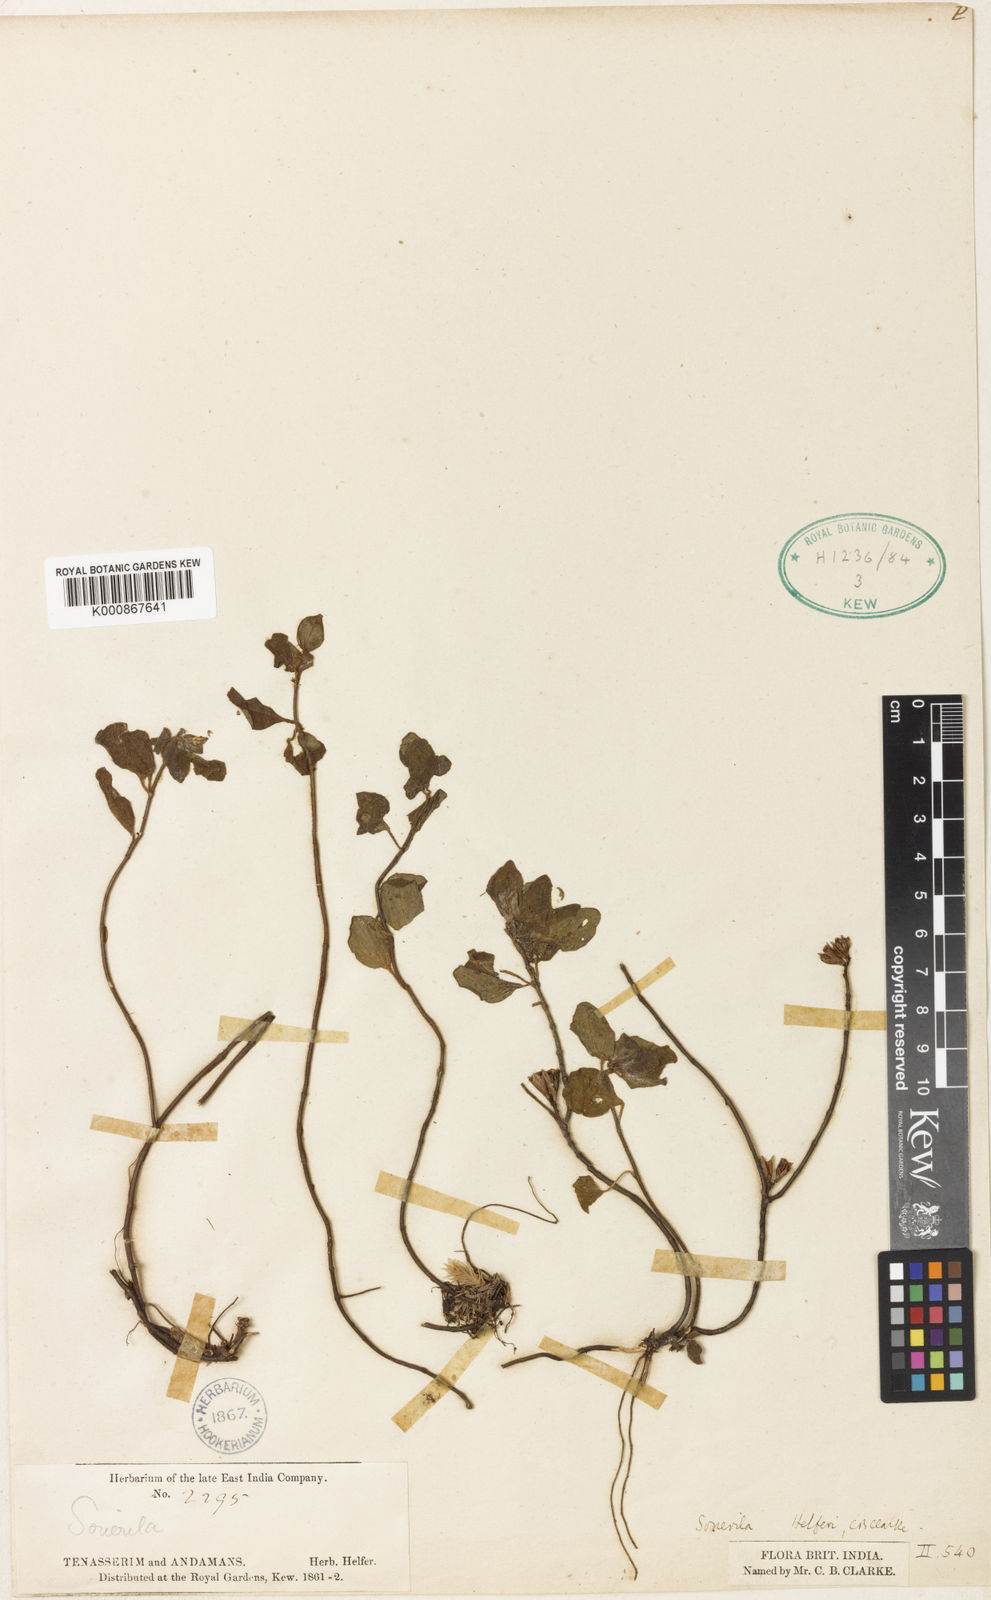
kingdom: Plantae
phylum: Tracheophyta
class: Magnoliopsida
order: Myrtales
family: Melastomataceae
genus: Sonerila
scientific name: Sonerila helferi
